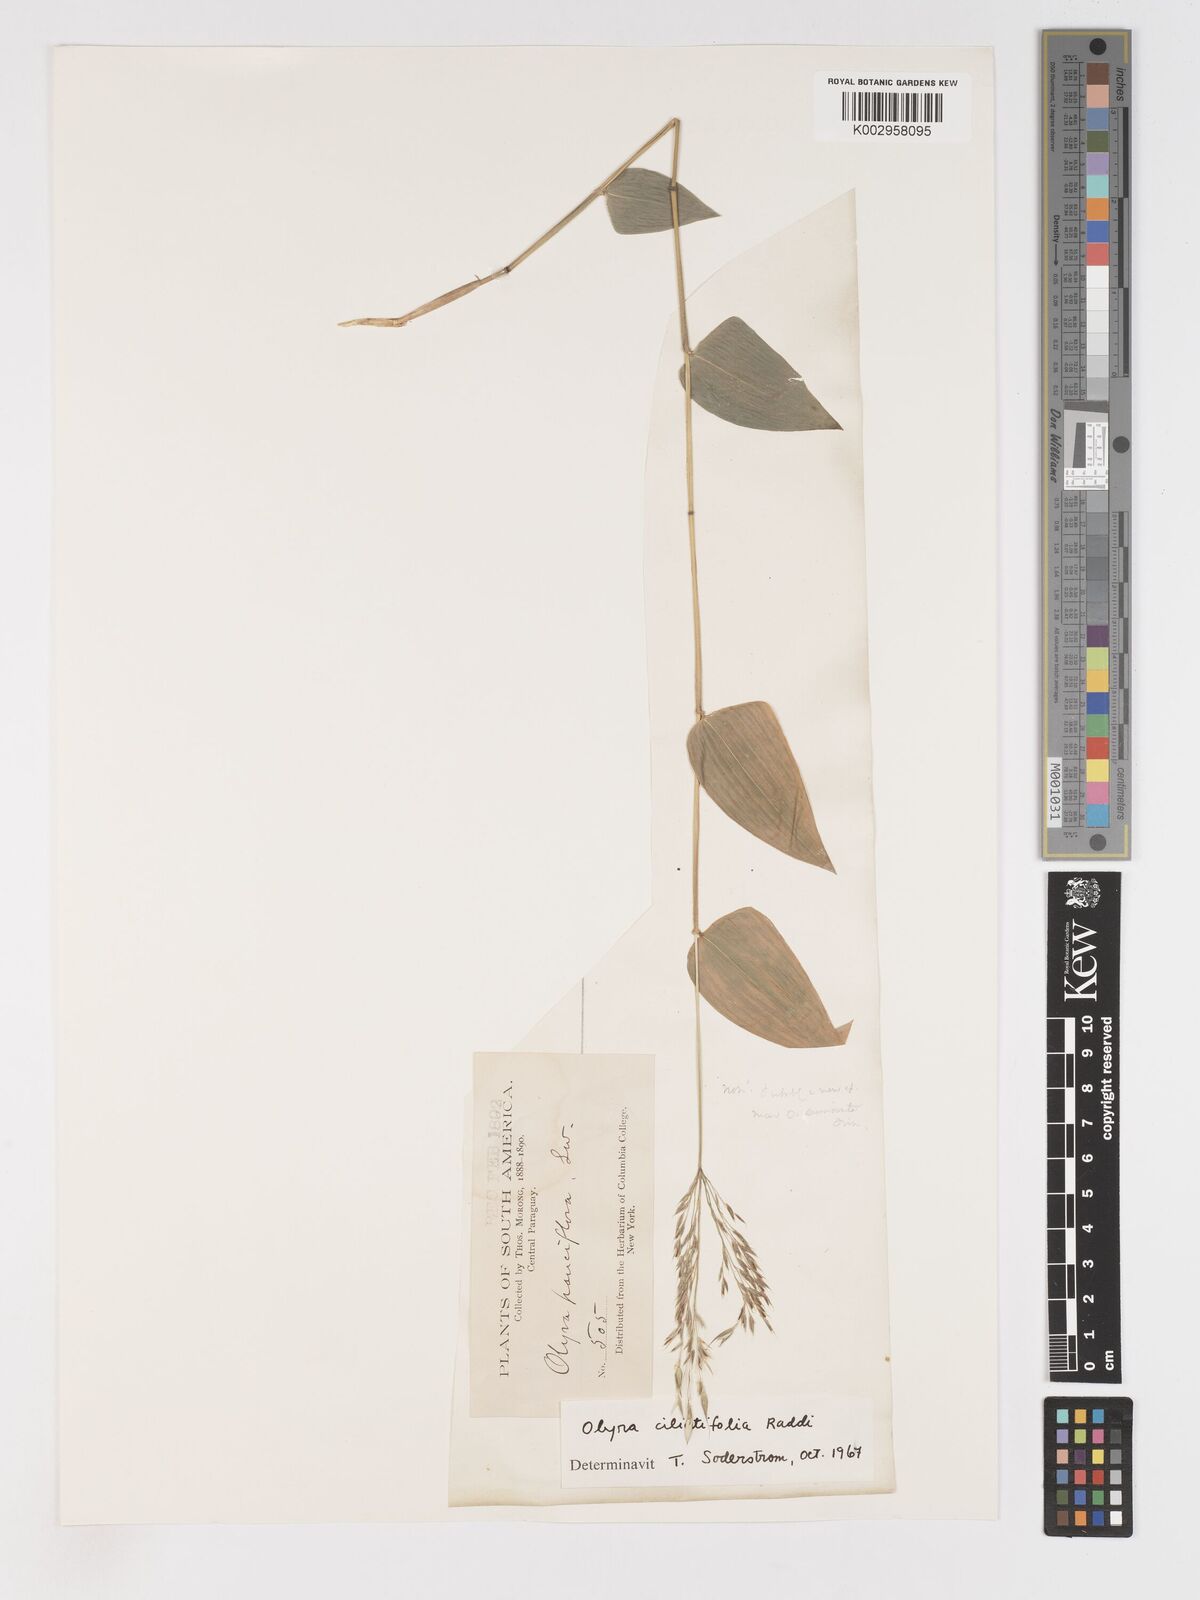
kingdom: Plantae
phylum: Tracheophyta
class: Liliopsida
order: Poales
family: Poaceae
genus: Olyra
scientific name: Olyra ciliatifolia
